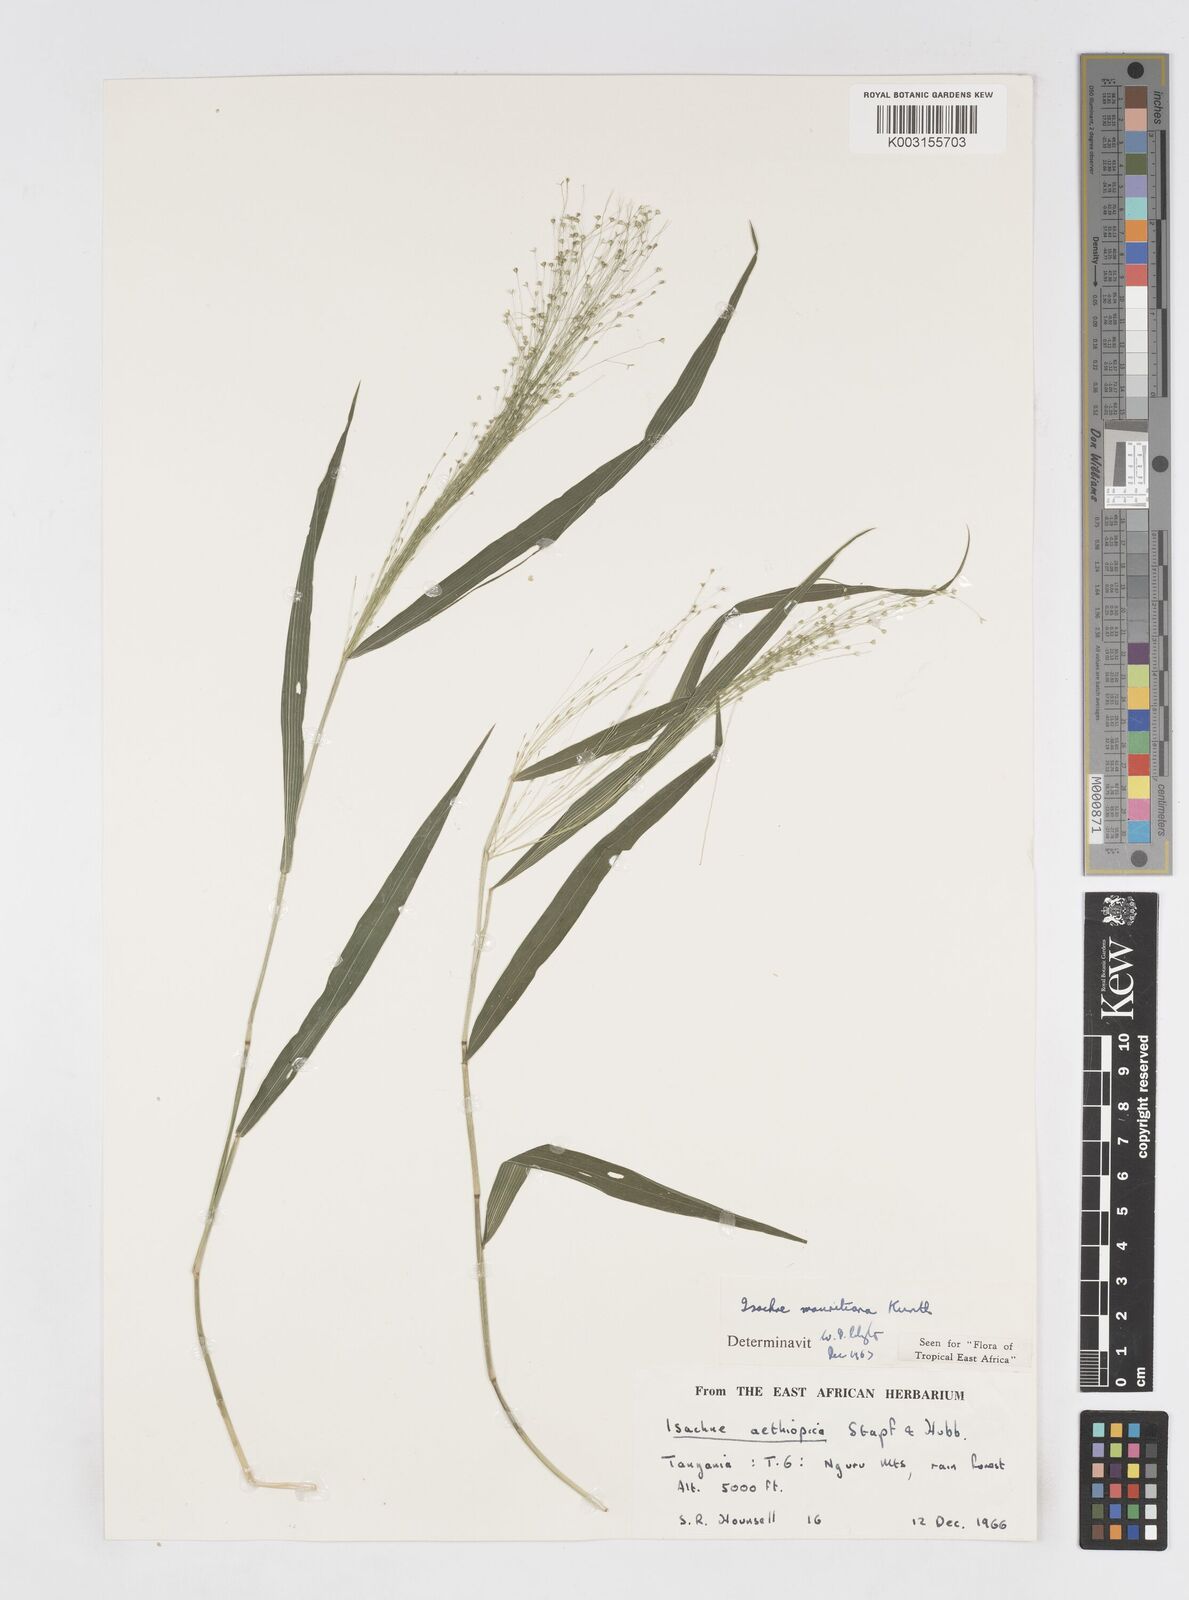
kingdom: Plantae
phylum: Tracheophyta
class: Liliopsida
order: Poales
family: Poaceae
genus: Isachne
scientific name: Isachne mauritiana
